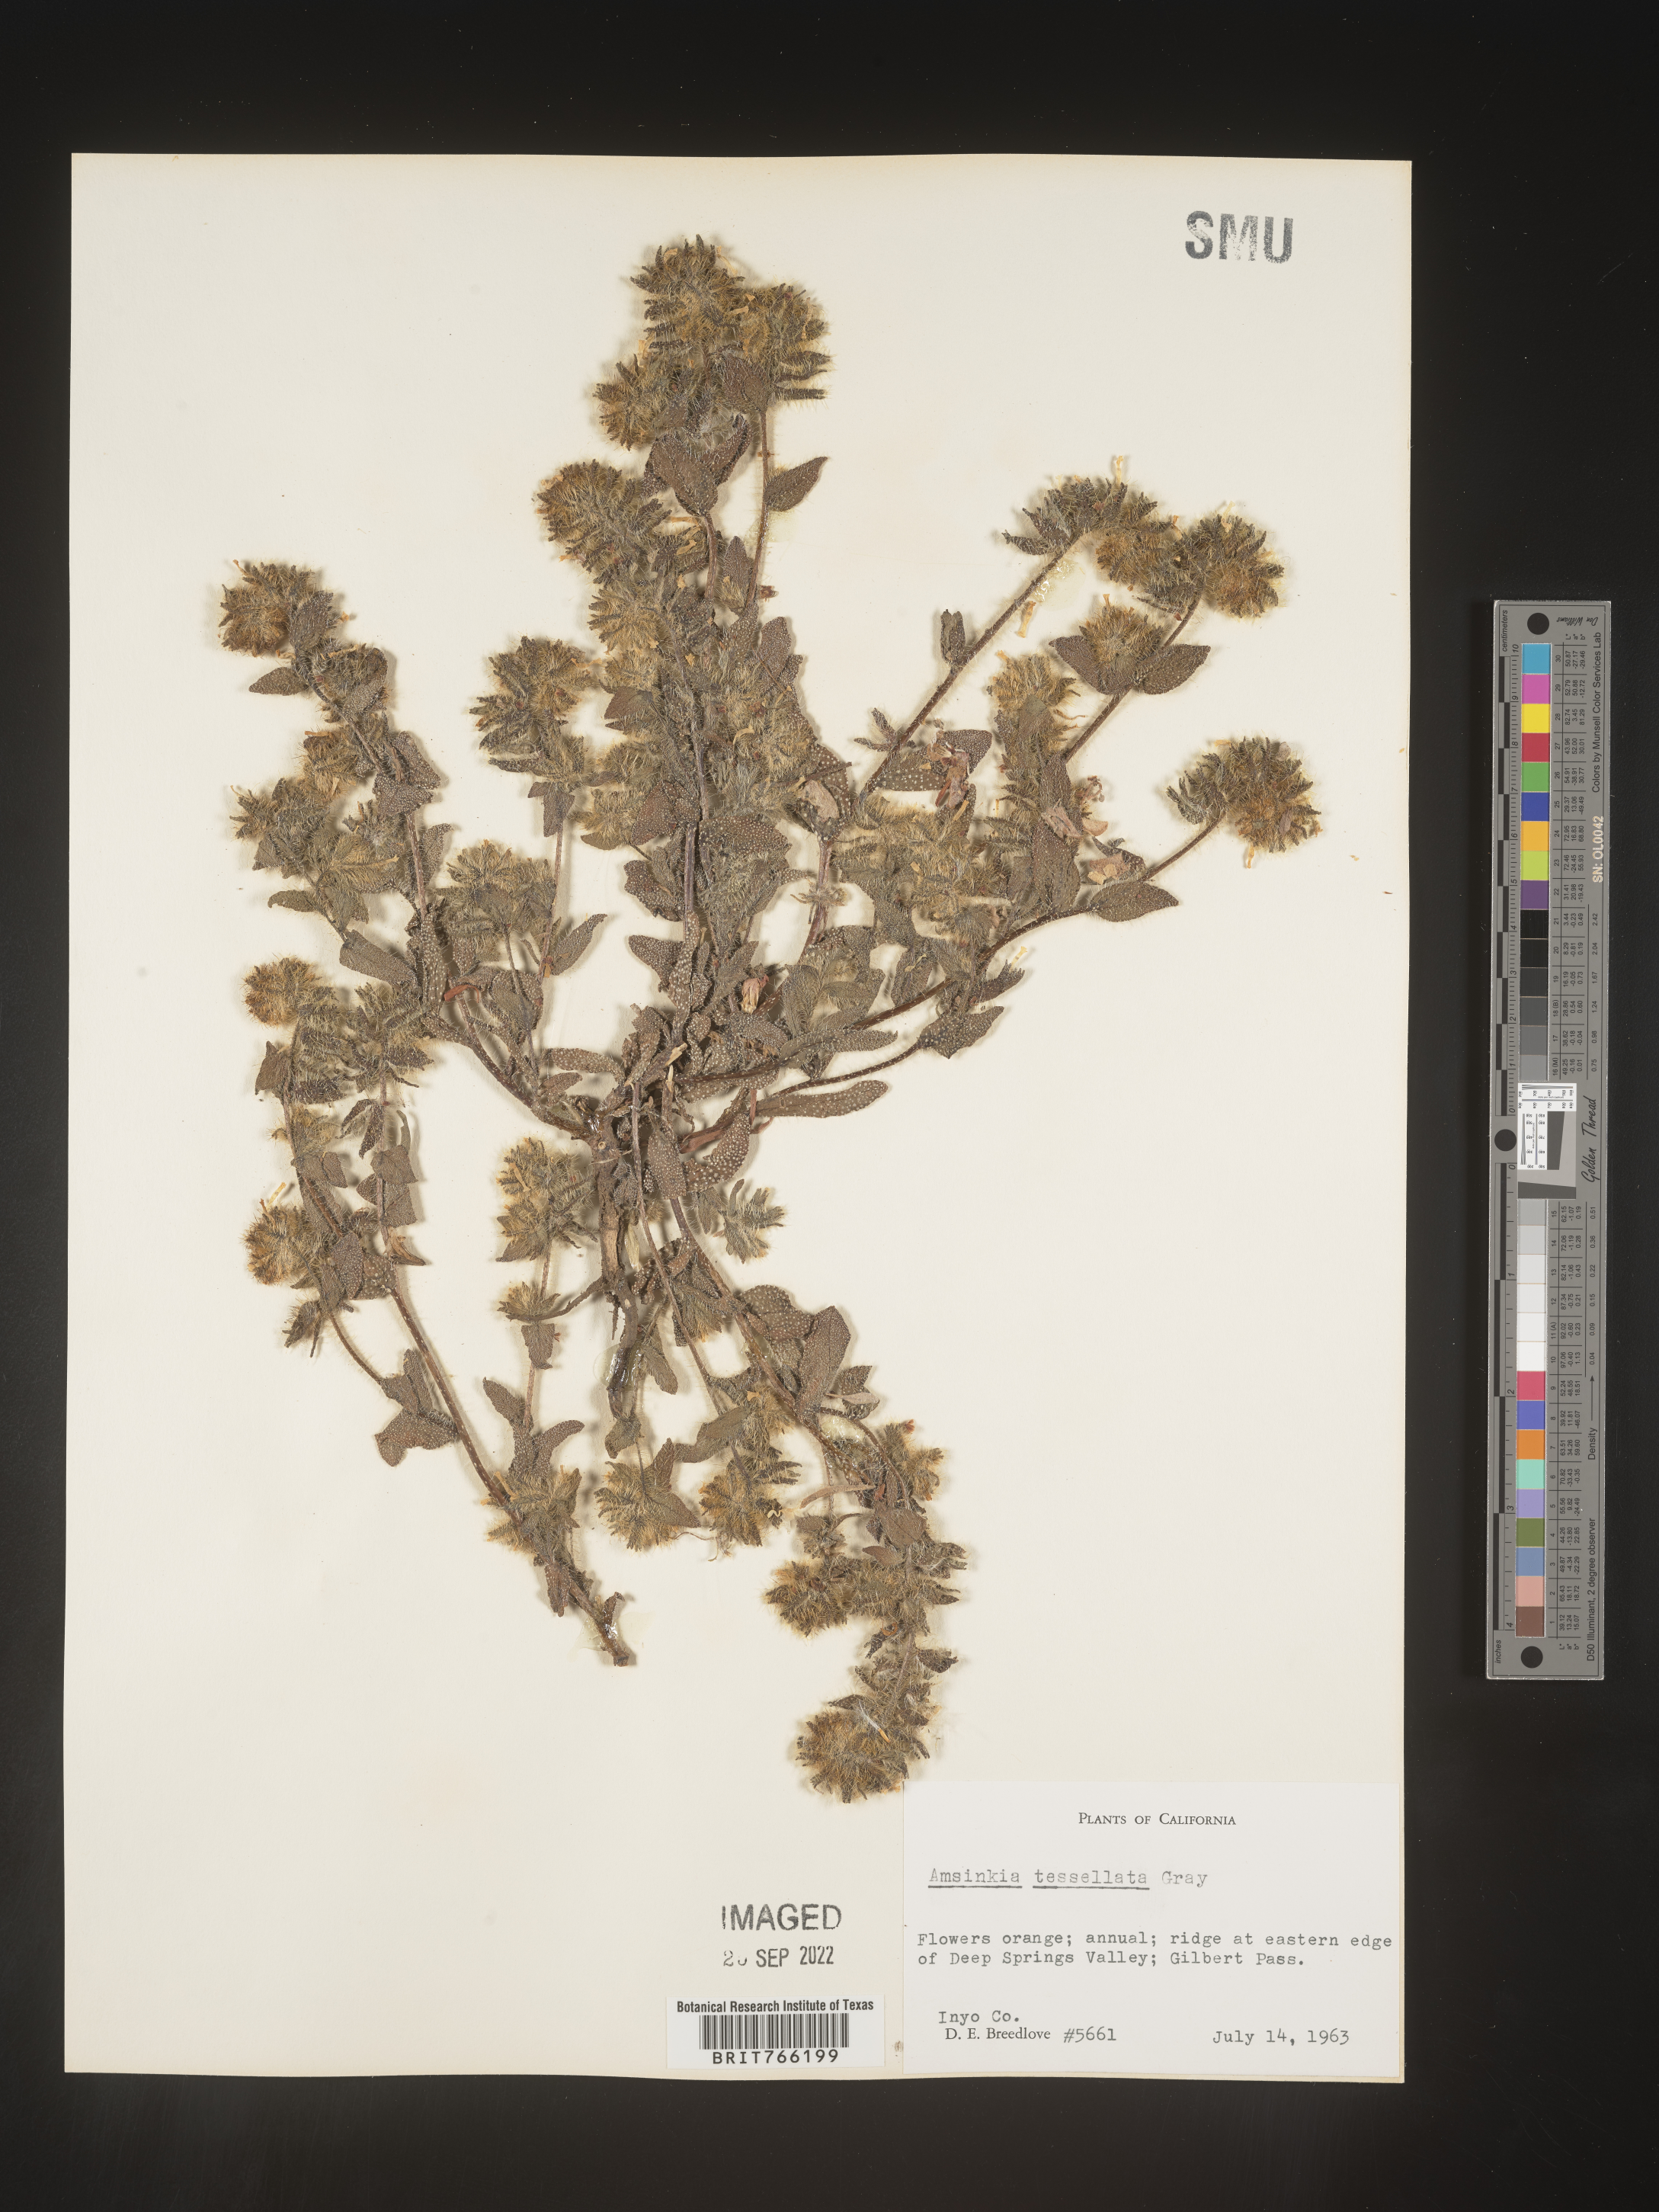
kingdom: Plantae
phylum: Tracheophyta
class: Magnoliopsida
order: Boraginales
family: Boraginaceae
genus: Amsinckia
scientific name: Amsinckia tessellata
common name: Tessellate fiddleneck
